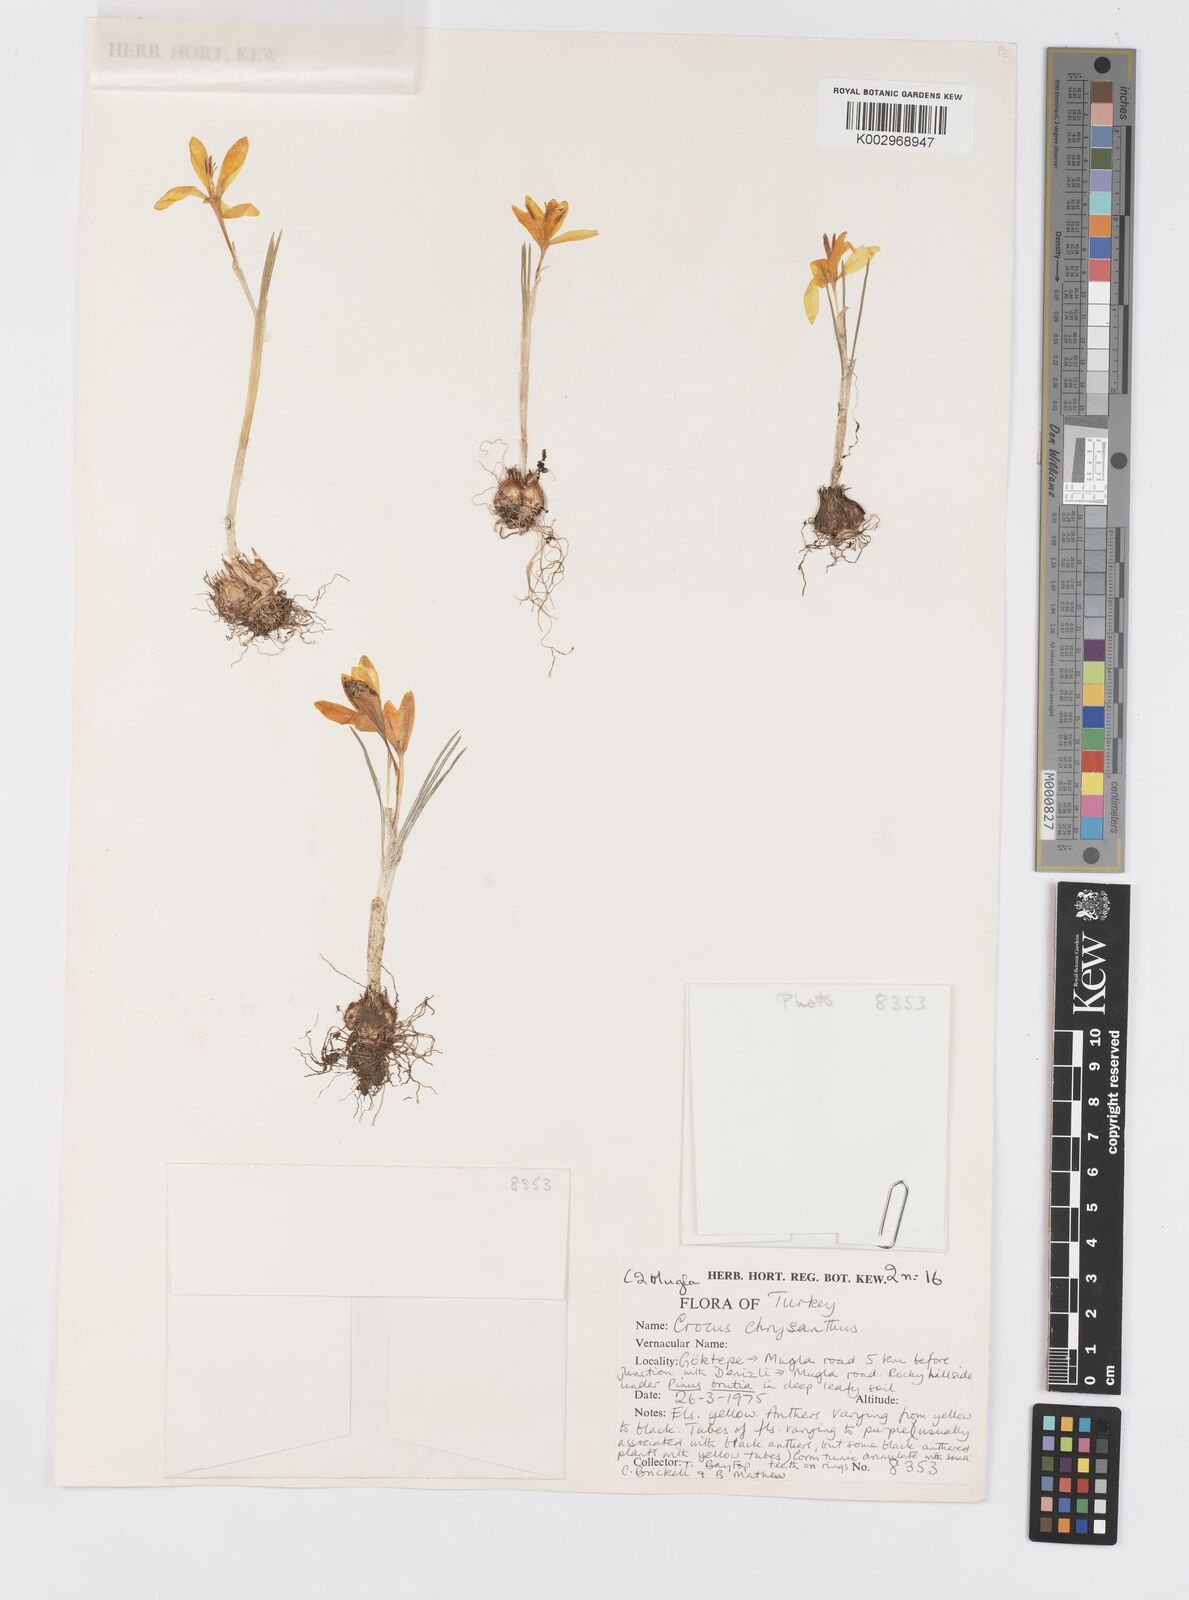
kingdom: Plantae
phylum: Tracheophyta
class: Liliopsida
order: Asparagales
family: Iridaceae
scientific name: Iridaceae
